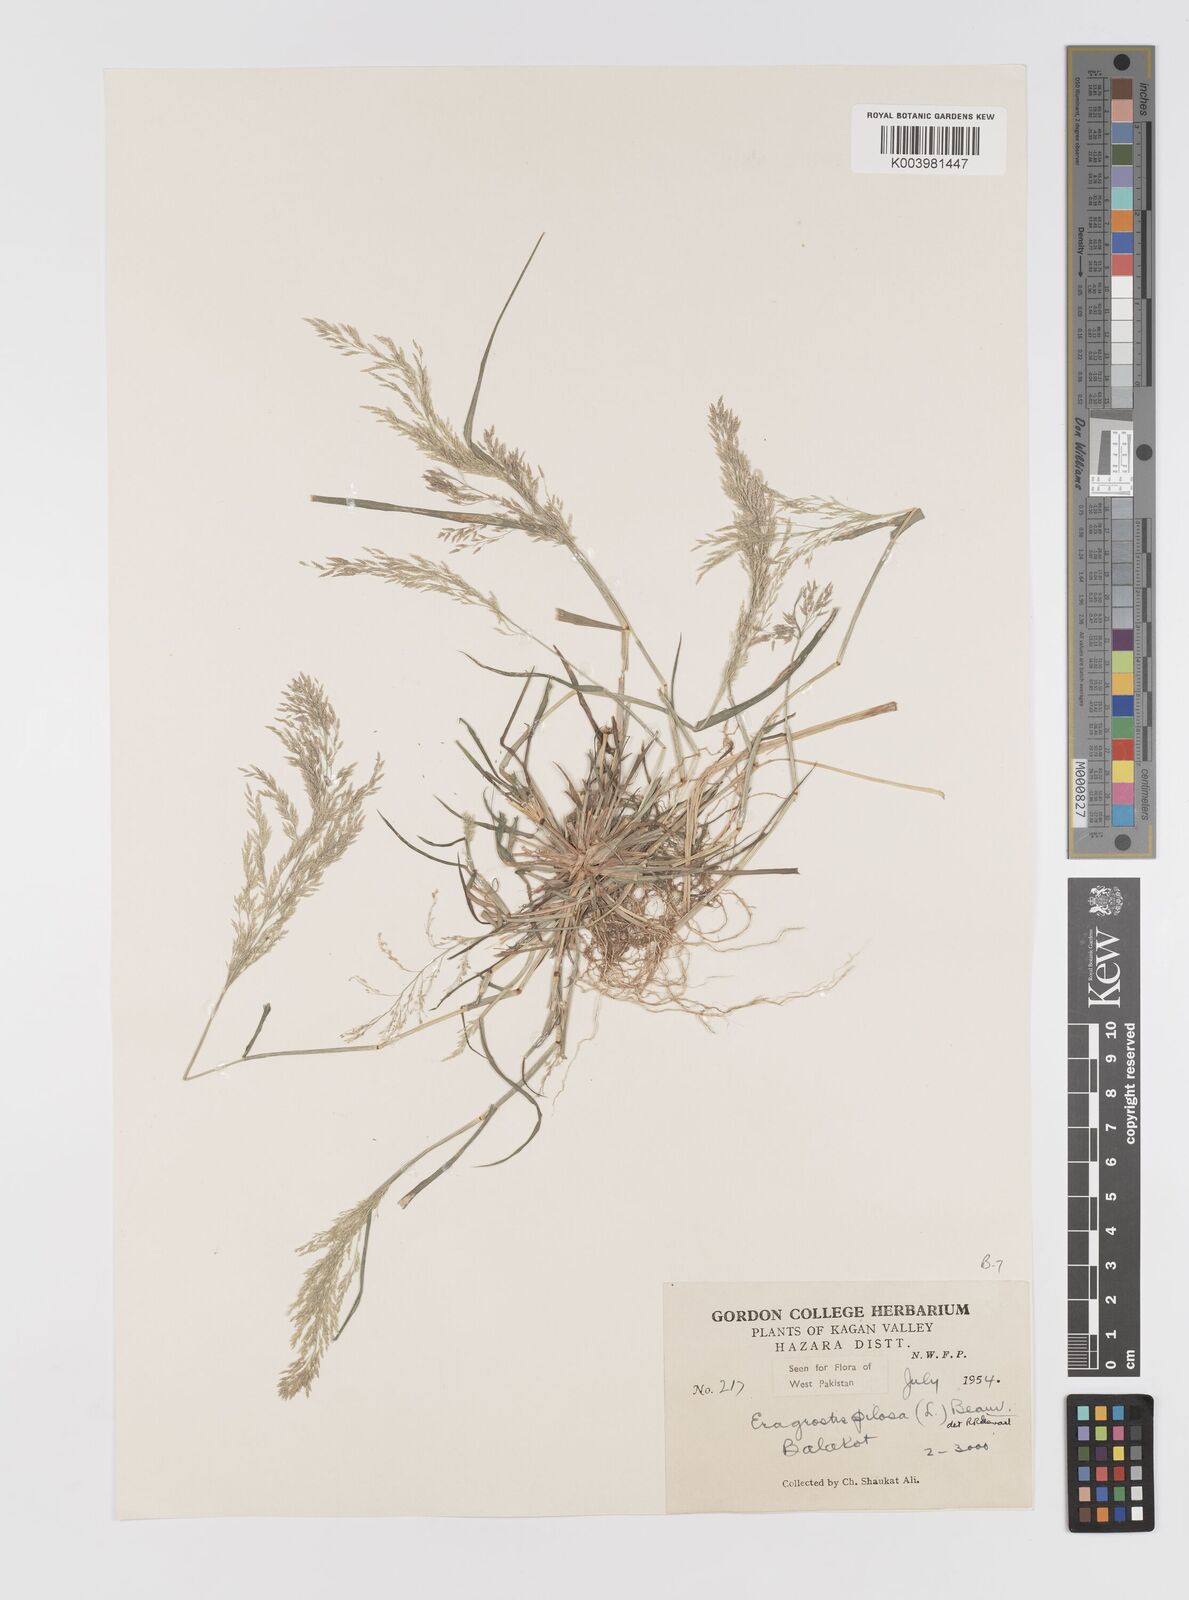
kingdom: Plantae
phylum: Tracheophyta
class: Liliopsida
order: Poales
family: Poaceae
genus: Eragrostis
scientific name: Eragrostis pilosa
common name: Indian lovegrass
